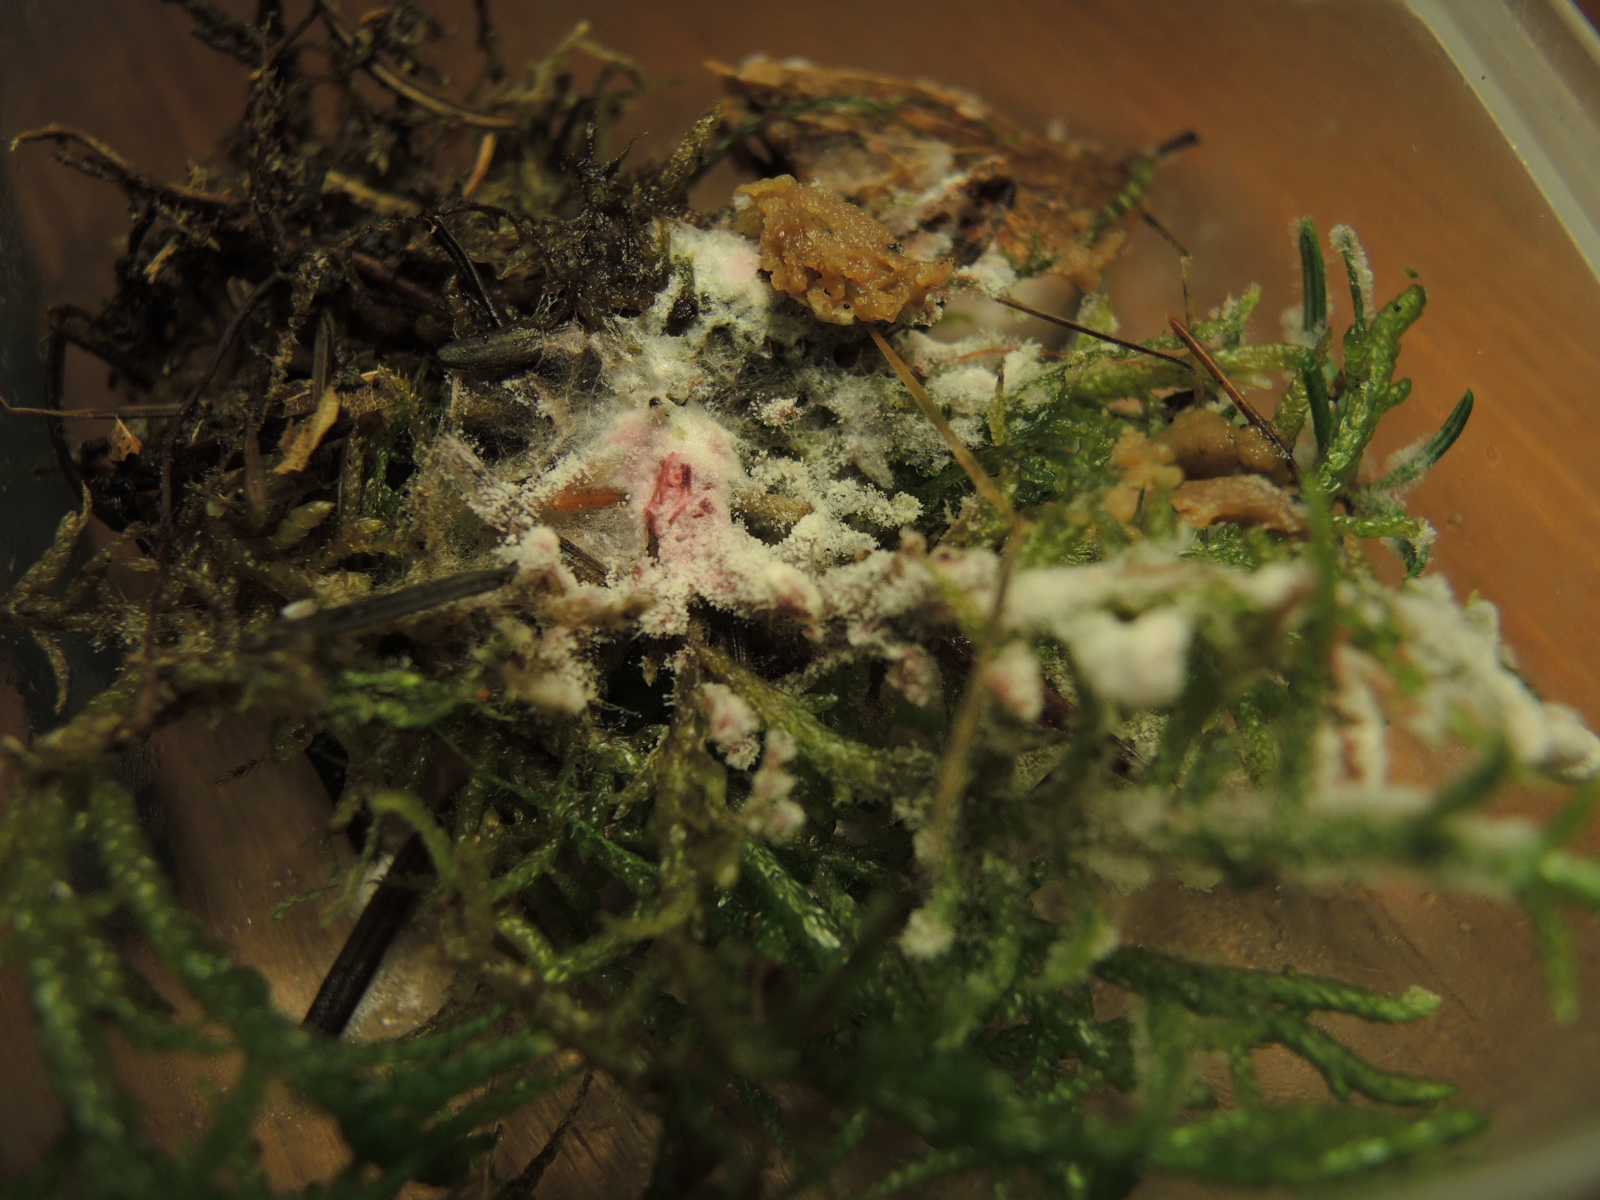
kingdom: Fungi
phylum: Ascomycota
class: Sordariomycetes
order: Hypocreales
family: Hypocreaceae
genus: Hypomyces
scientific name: Hypomyces rosellus
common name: rosa snylteskorpe
